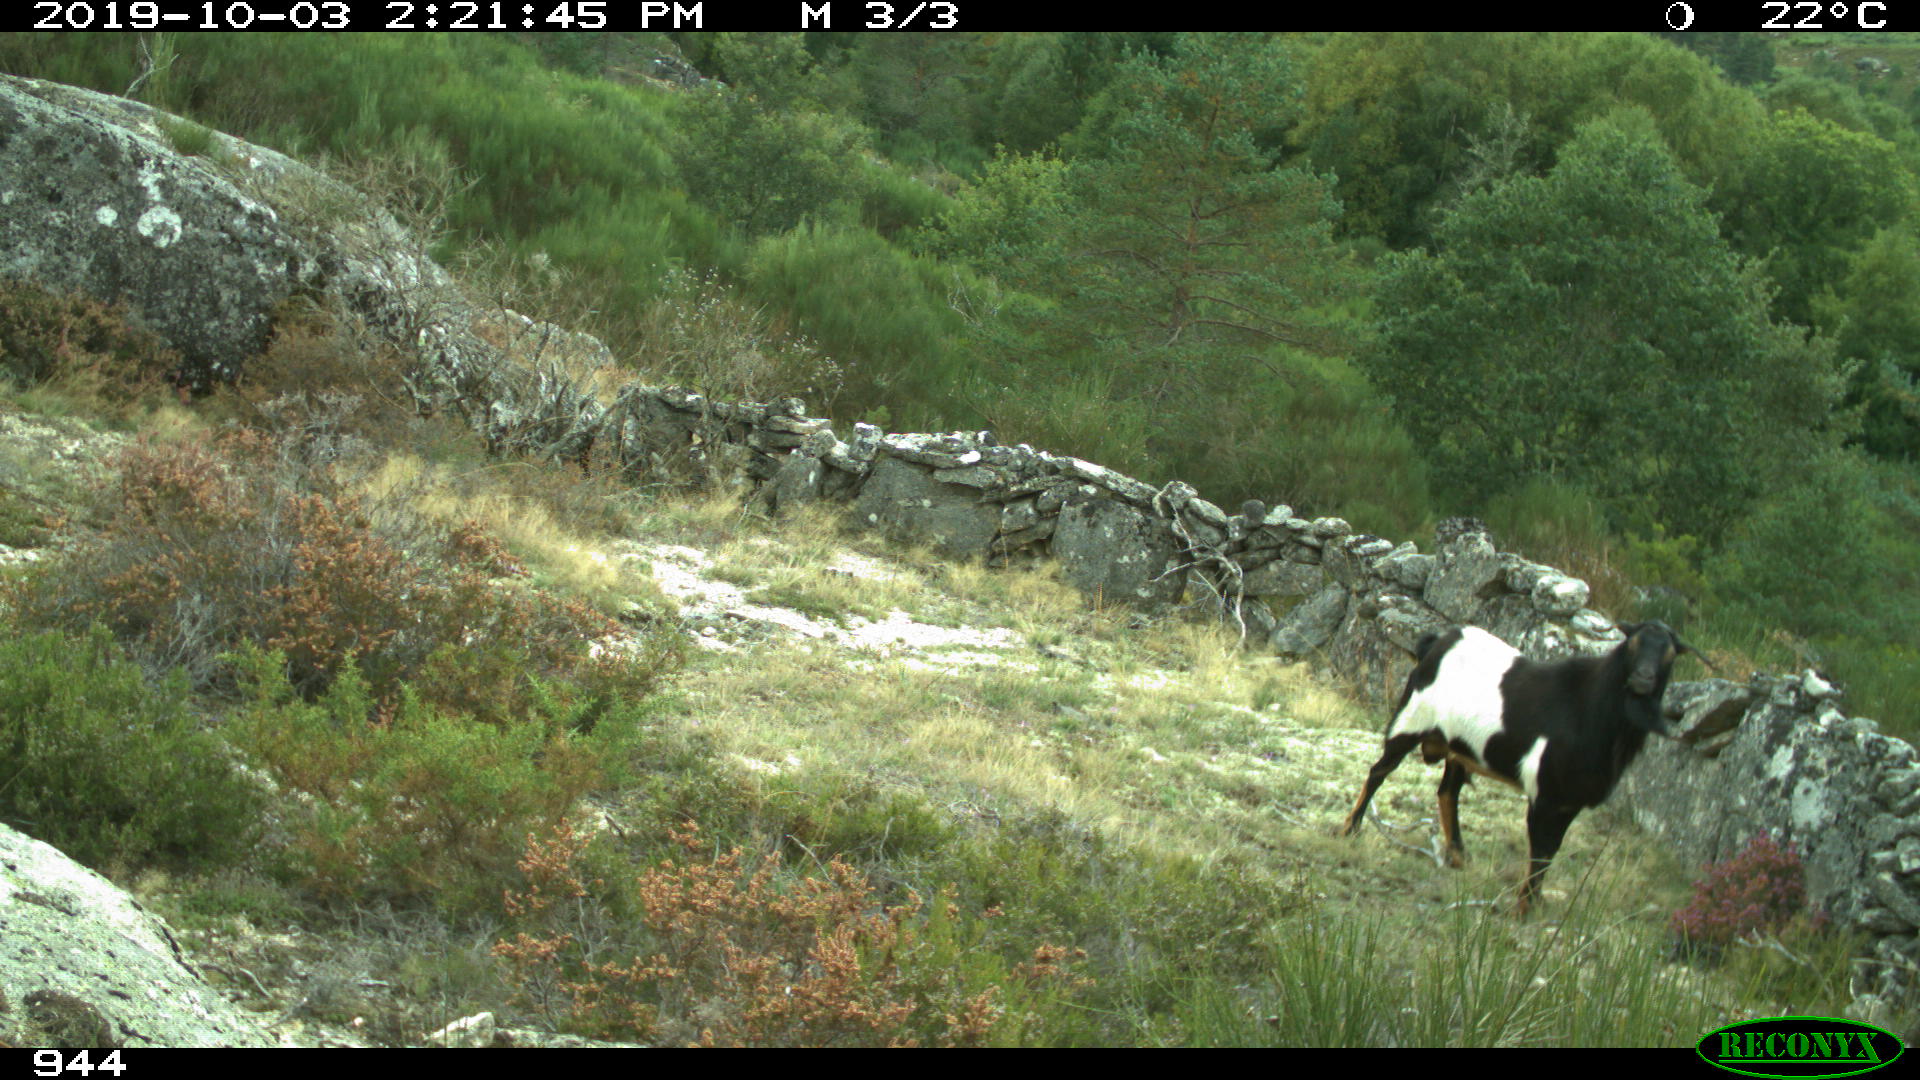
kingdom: Animalia
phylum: Chordata
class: Mammalia
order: Artiodactyla
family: Bovidae
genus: Capra
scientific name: Capra hircus
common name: Domestic goat
